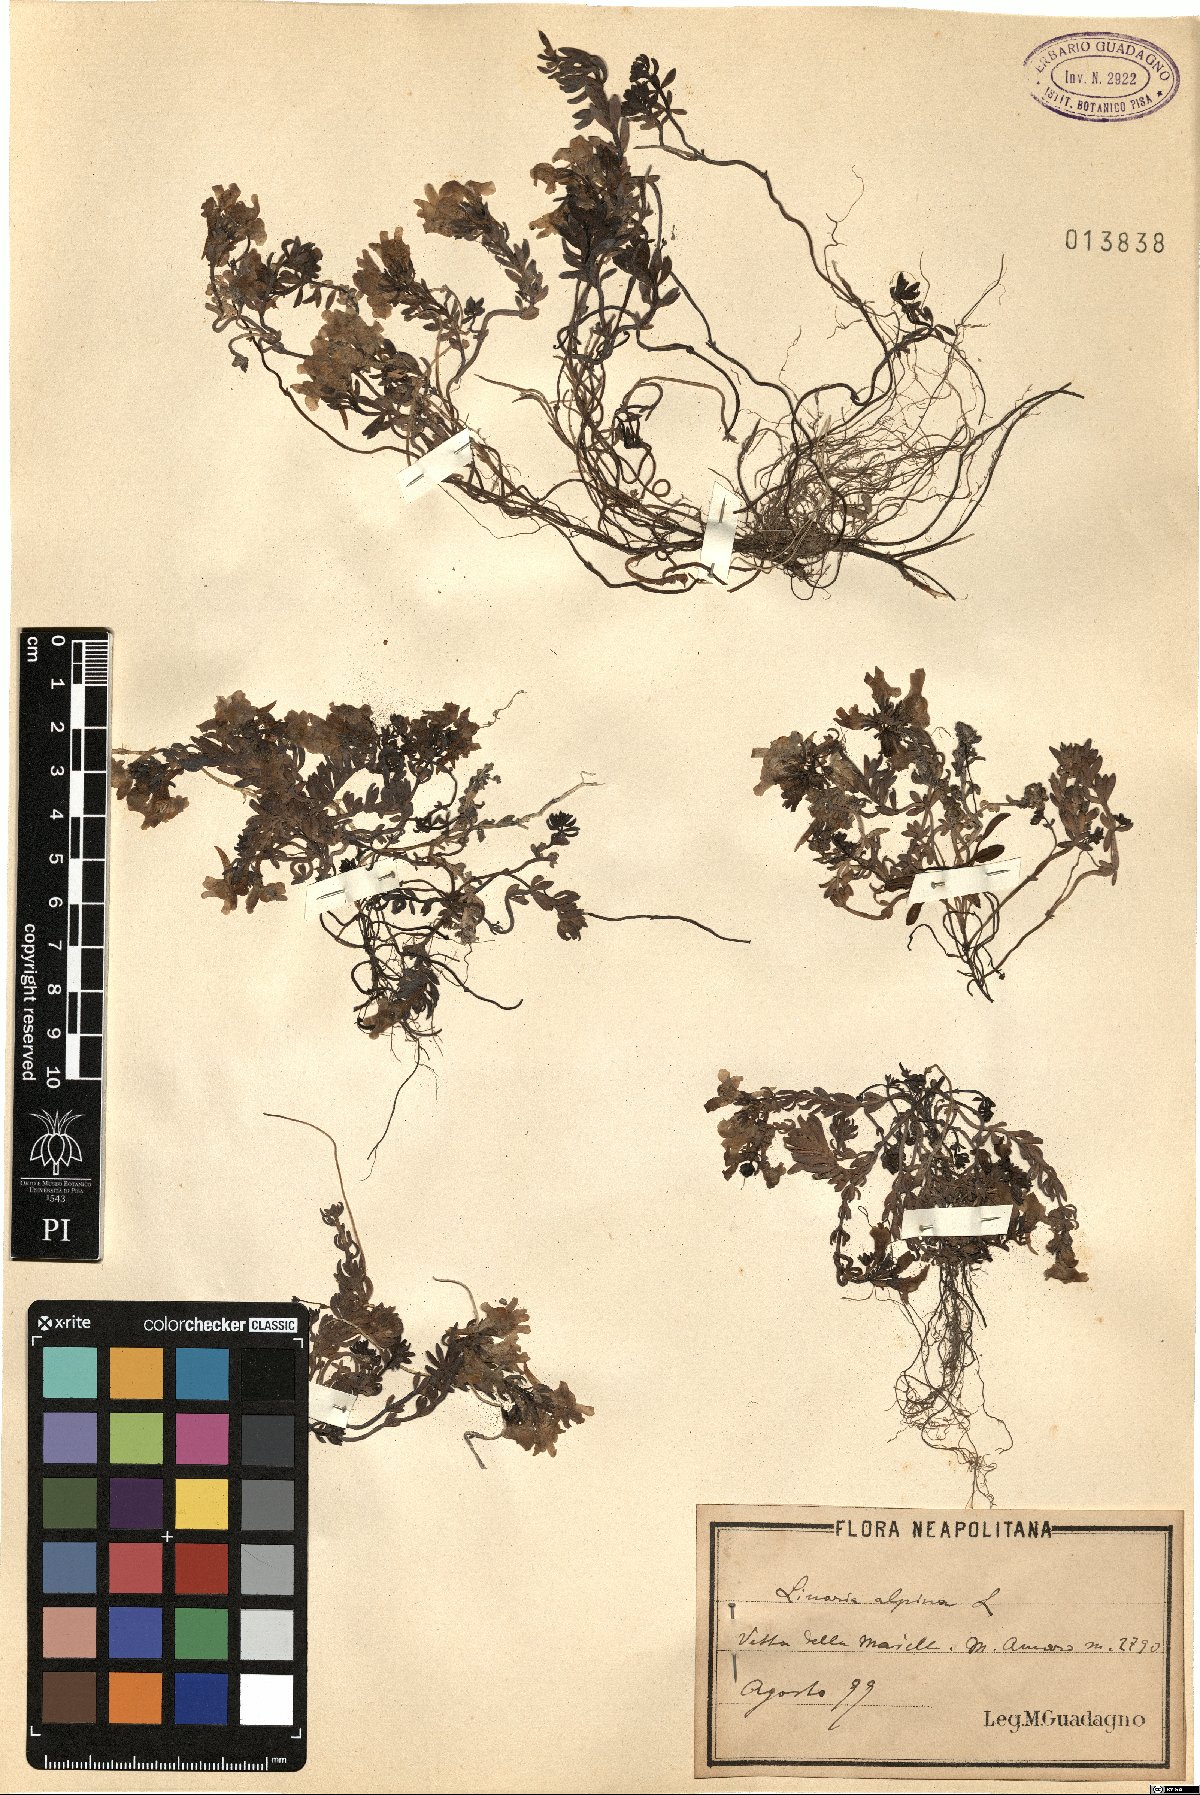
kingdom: Plantae
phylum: Tracheophyta
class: Magnoliopsida
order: Lamiales
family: Plantaginaceae
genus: Linaria
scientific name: Linaria alpina
